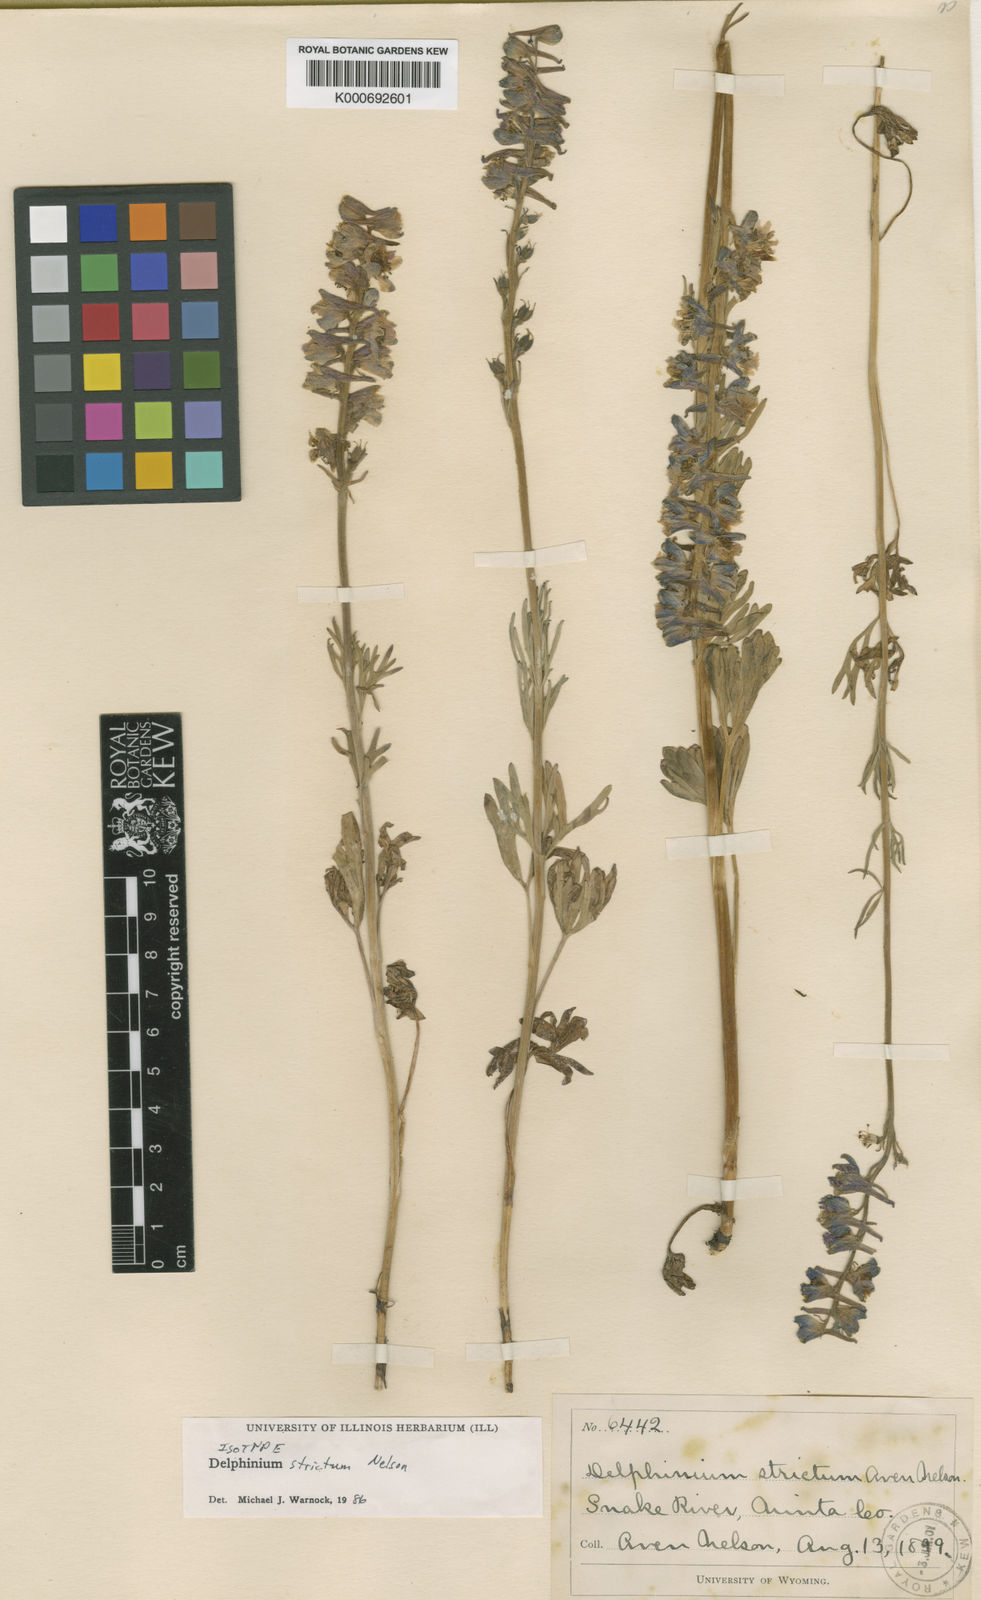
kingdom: Plantae
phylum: Tracheophyta
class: Magnoliopsida
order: Ranunculales
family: Ranunculaceae
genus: Delphinium
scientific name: Delphinium distichum
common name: Meadow larkspur
